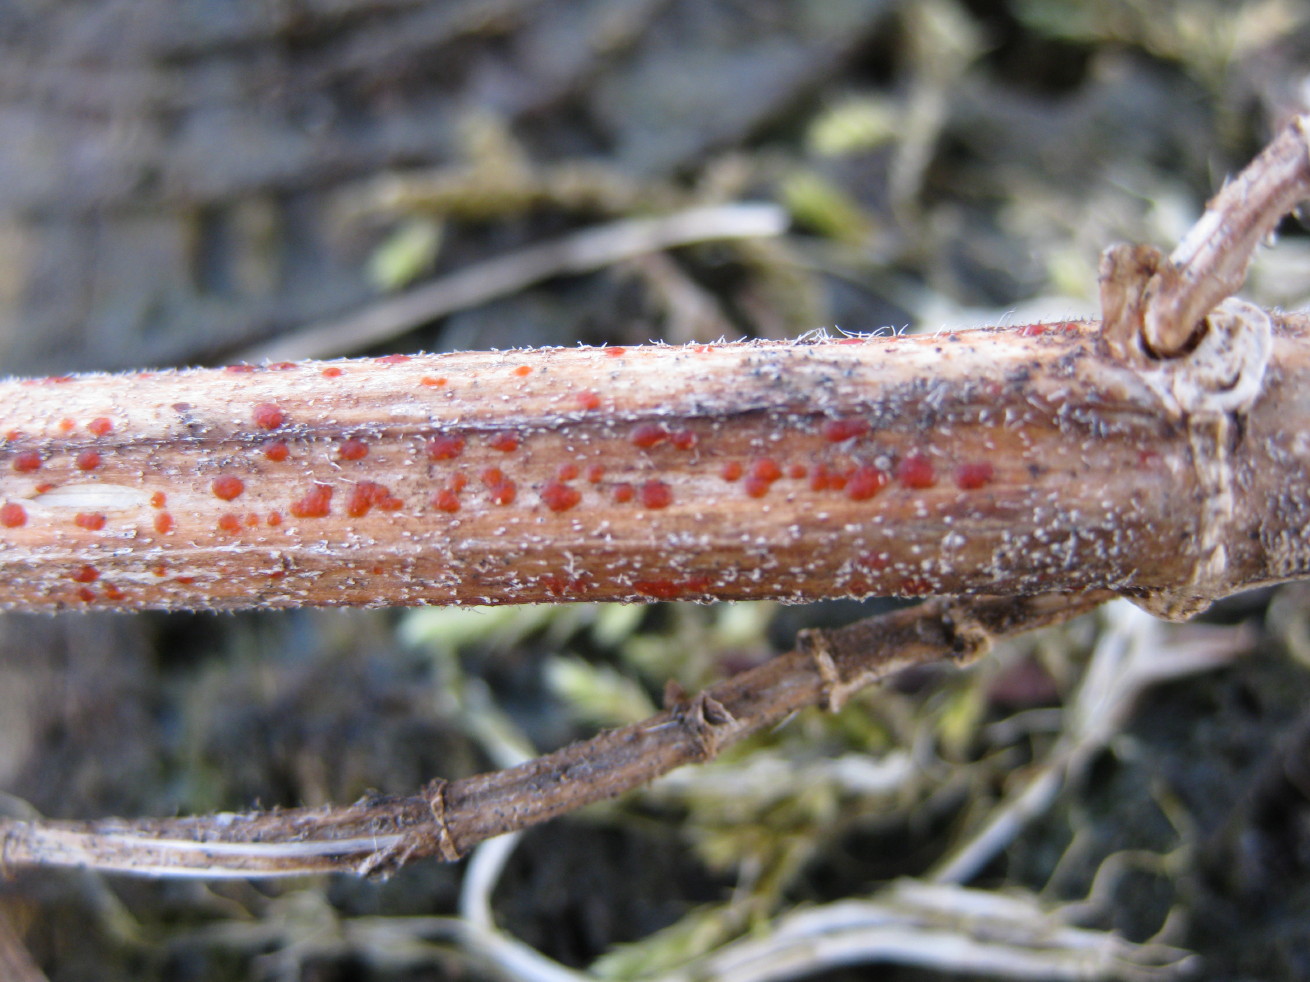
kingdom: Fungi
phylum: Ascomycota
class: Leotiomycetes
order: Helotiales
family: Calloriaceae
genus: Calloria
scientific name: Calloria urticae
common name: nælde-orangeskive
